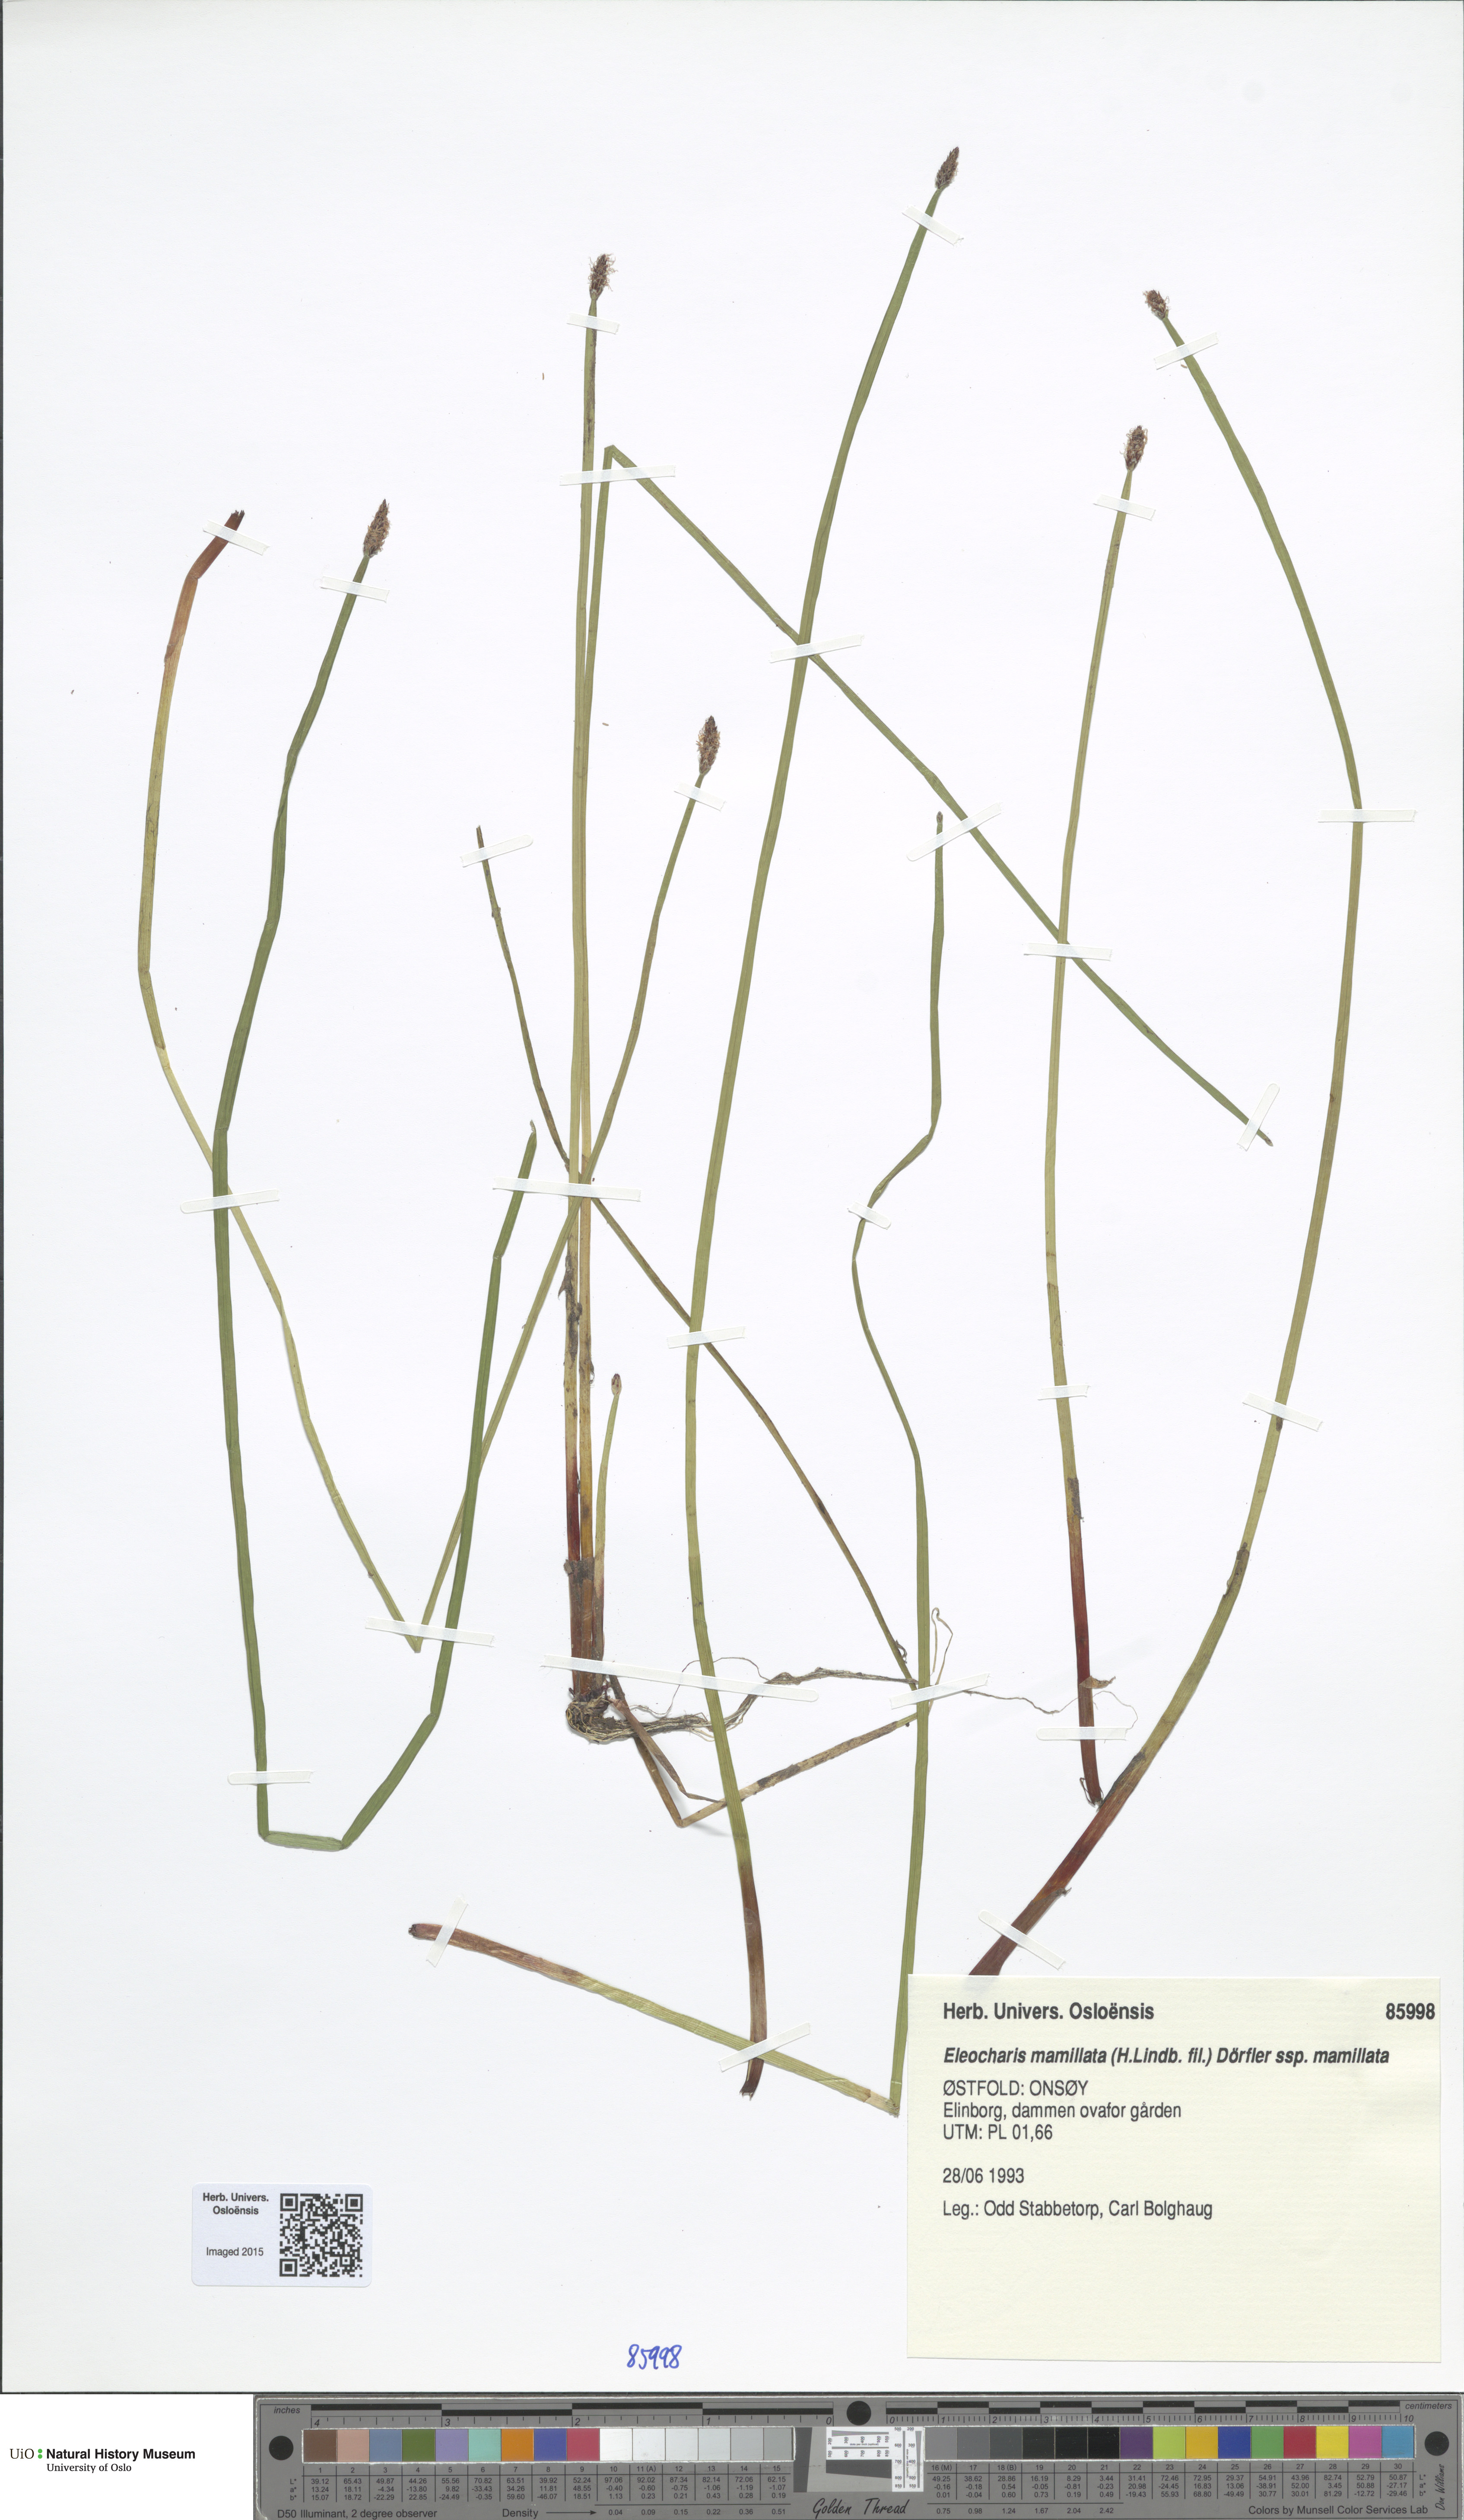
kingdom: Plantae
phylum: Tracheophyta
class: Liliopsida
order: Poales
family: Cyperaceae
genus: Eleocharis
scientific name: Eleocharis mamillata
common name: Northern spike-rush
